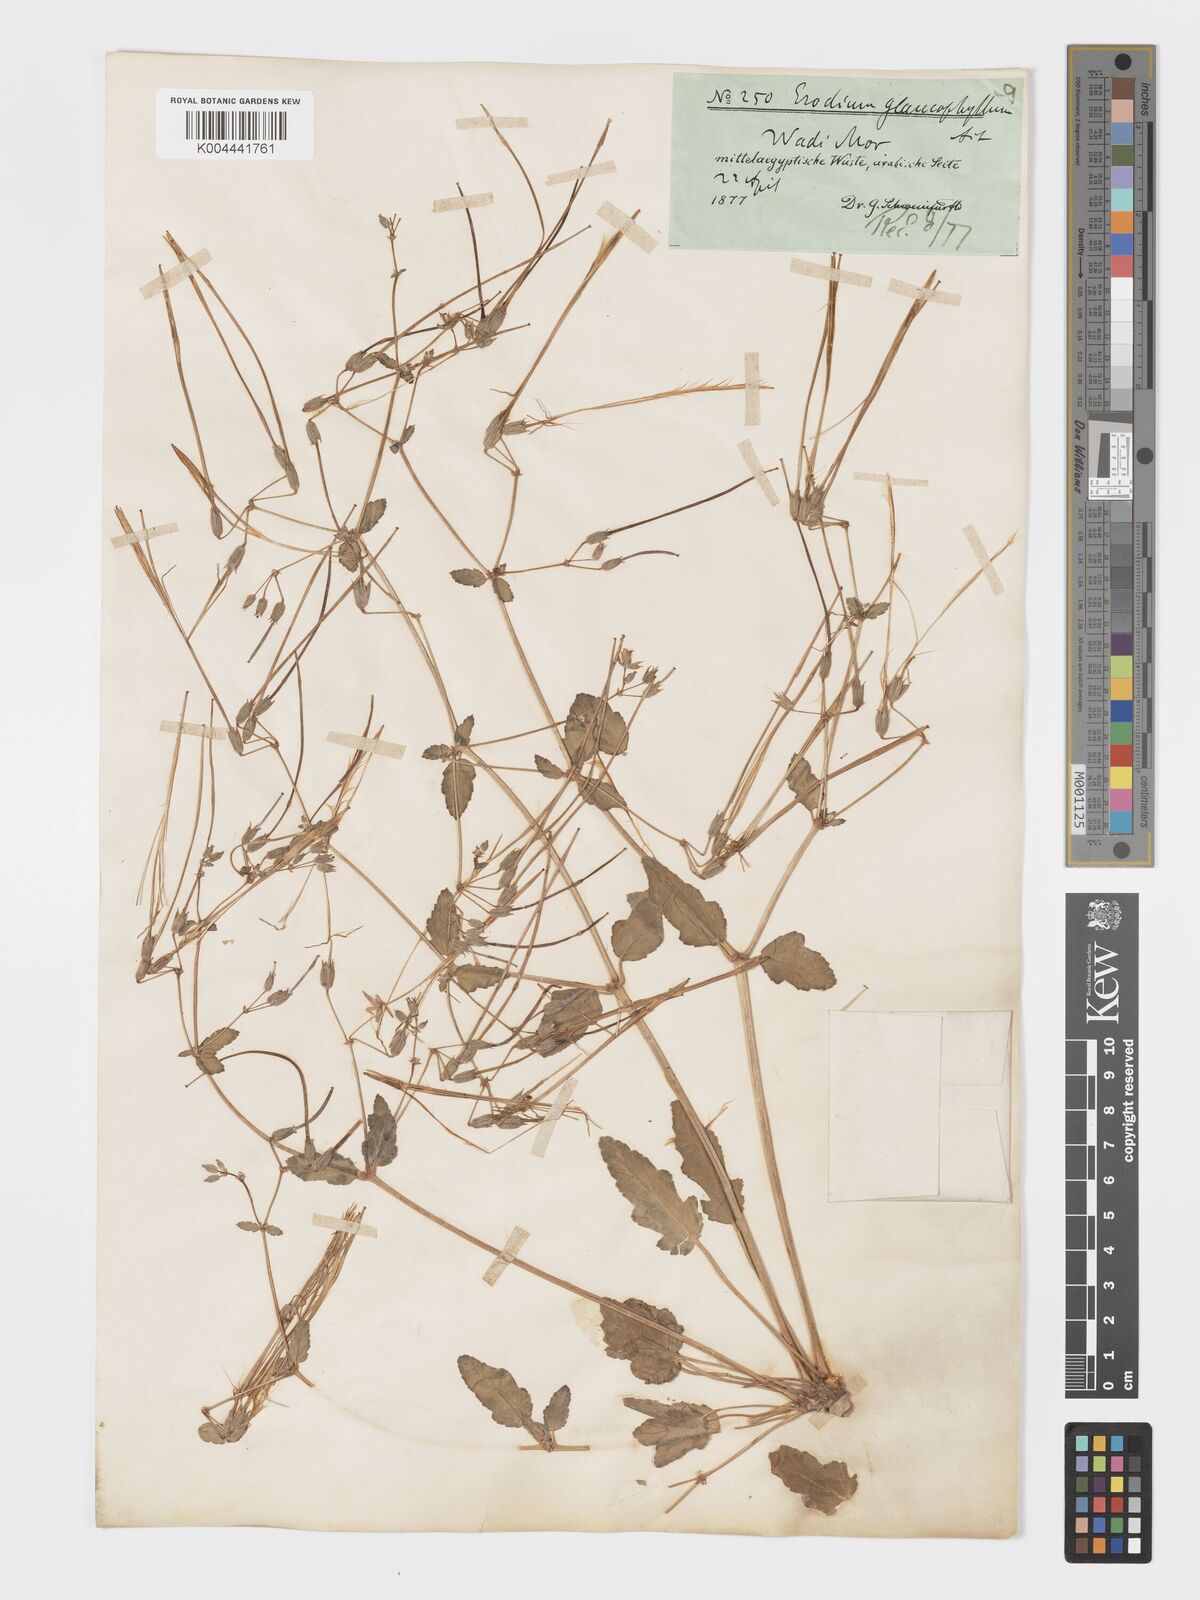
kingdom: Plantae
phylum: Tracheophyta
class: Magnoliopsida
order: Geraniales
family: Geraniaceae
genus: Erodium
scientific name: Erodium glaucophyllum
